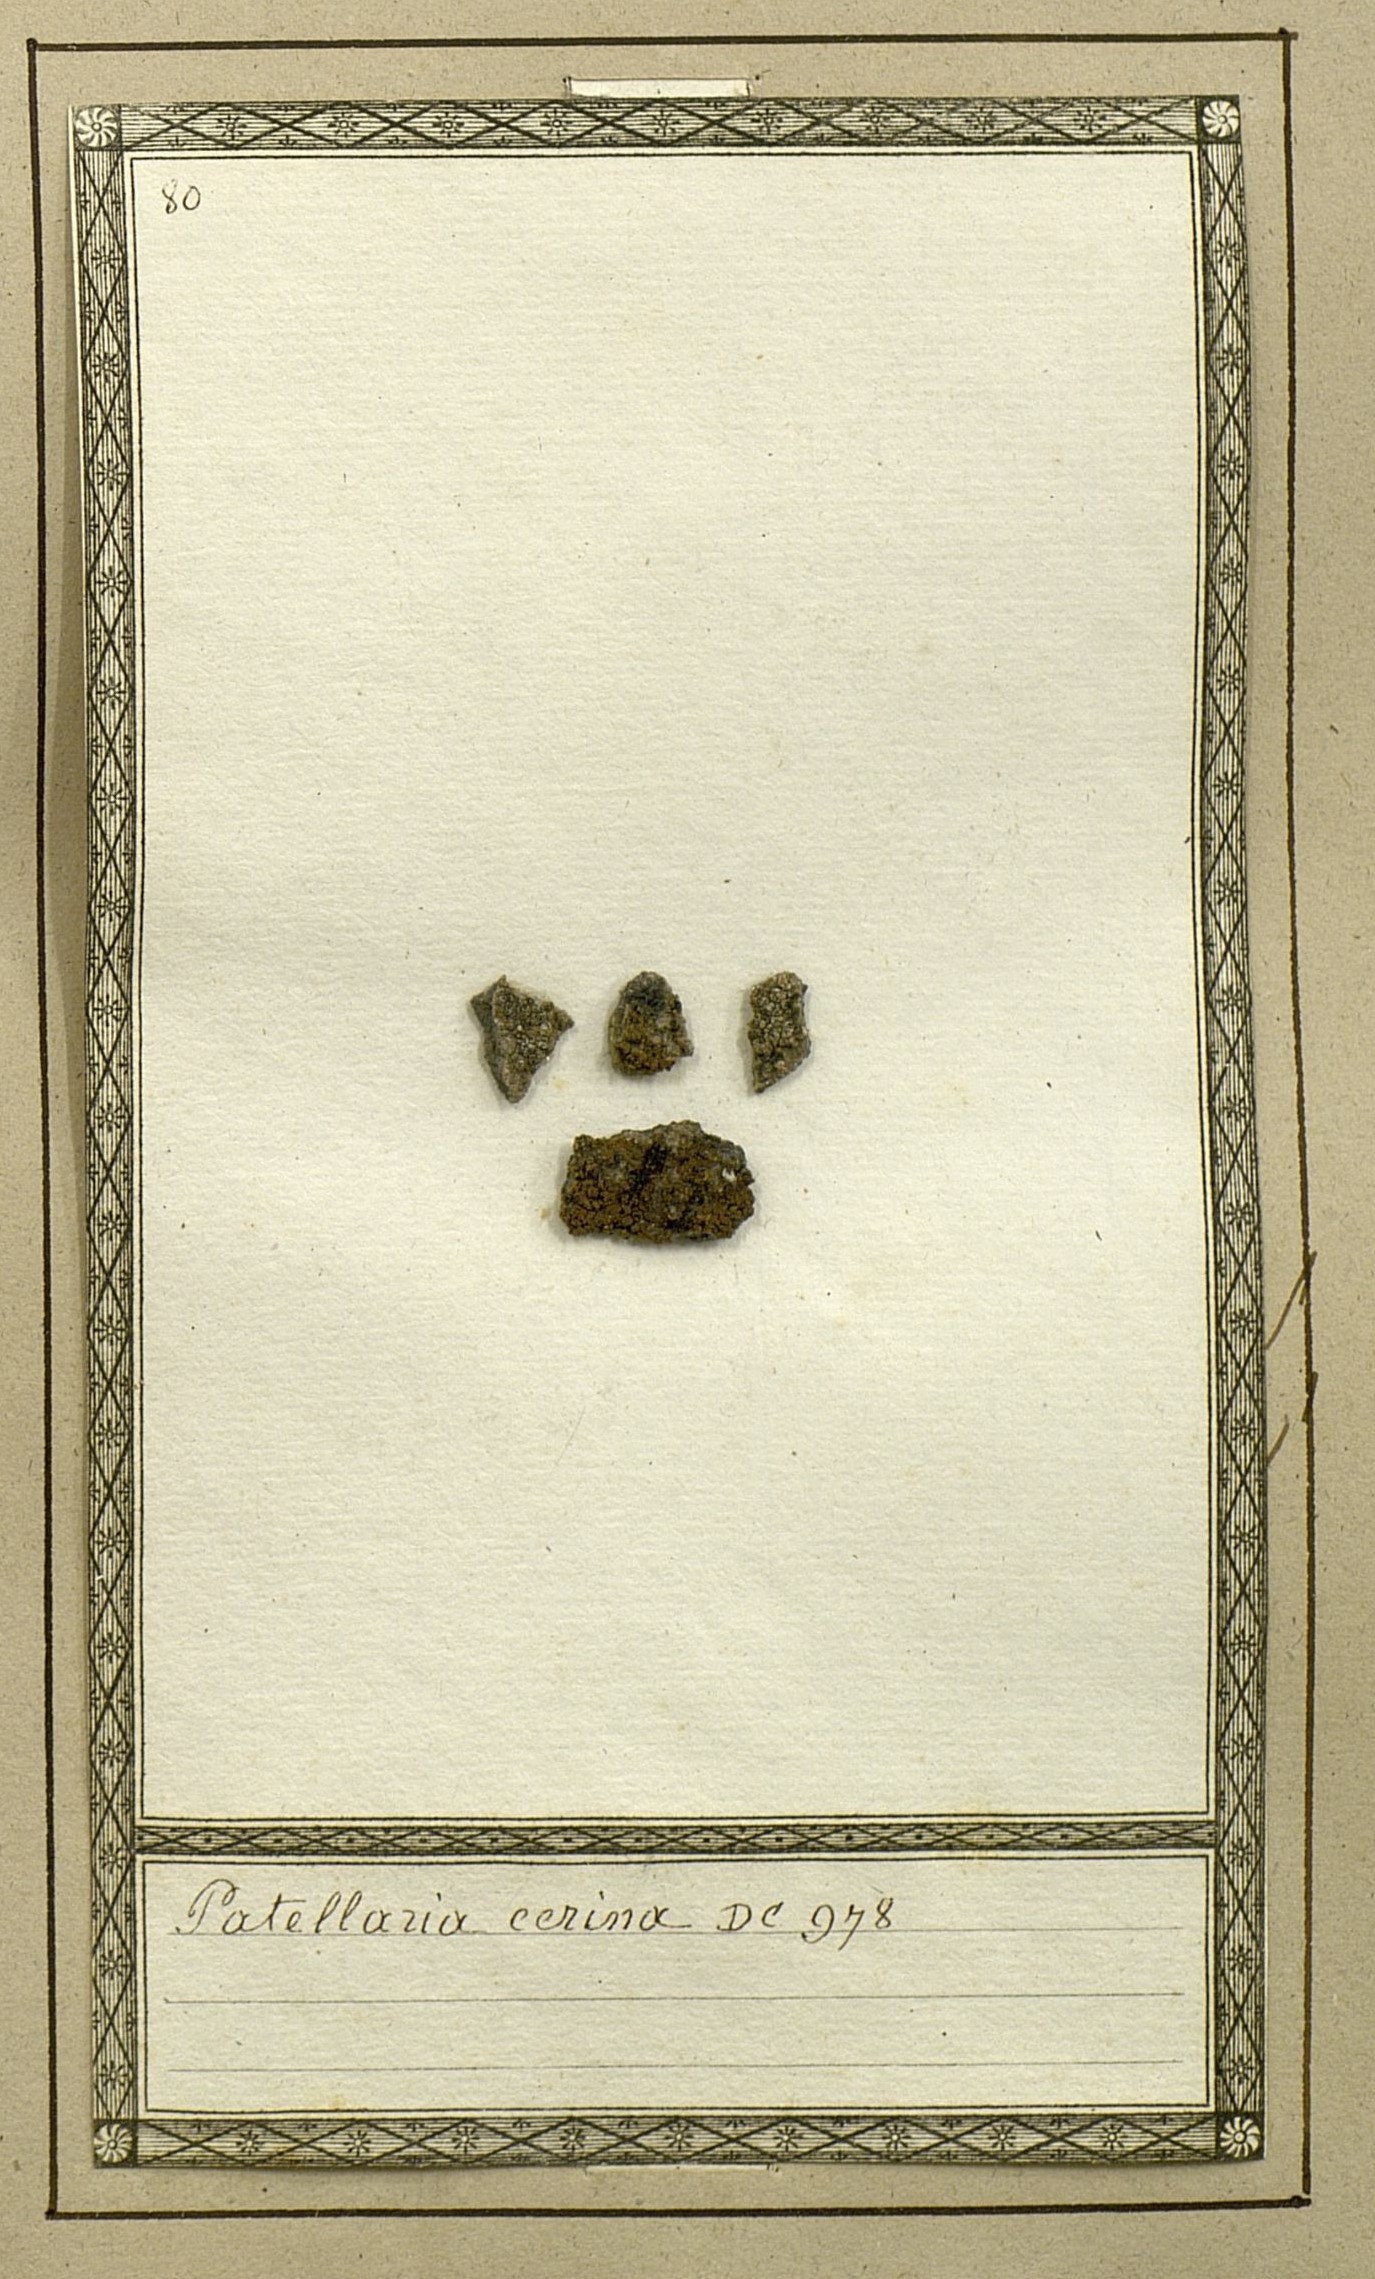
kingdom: Fungi
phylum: Ascomycota
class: Lecanoromycetes
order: Teloschistales
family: Teloschistaceae
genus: Caloplaca
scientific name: Caloplaca cerina
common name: Gray-rimmed firedot lichen
